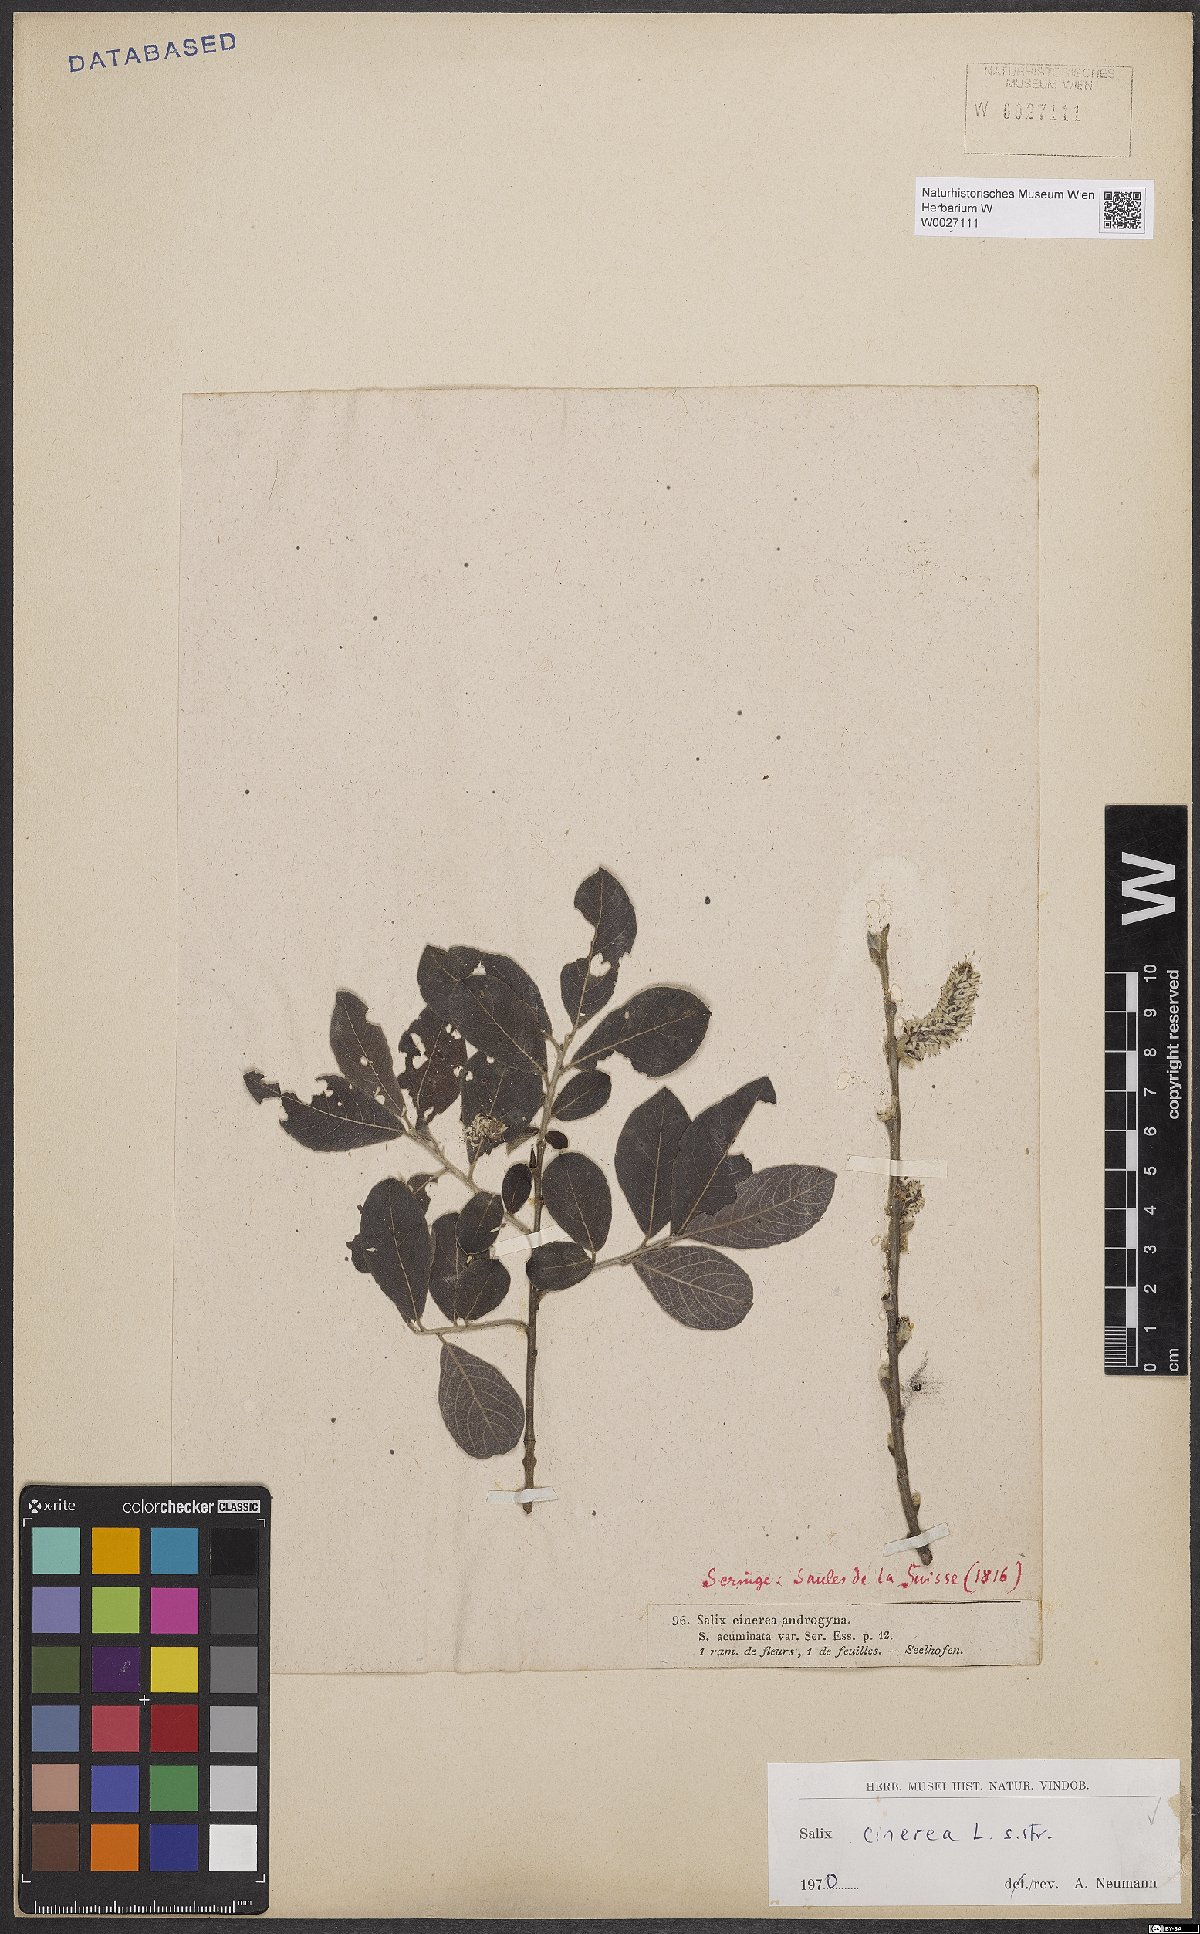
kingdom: Plantae
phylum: Tracheophyta
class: Magnoliopsida
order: Malpighiales
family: Salicaceae
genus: Salix
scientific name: Salix cinerea
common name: Common sallow
